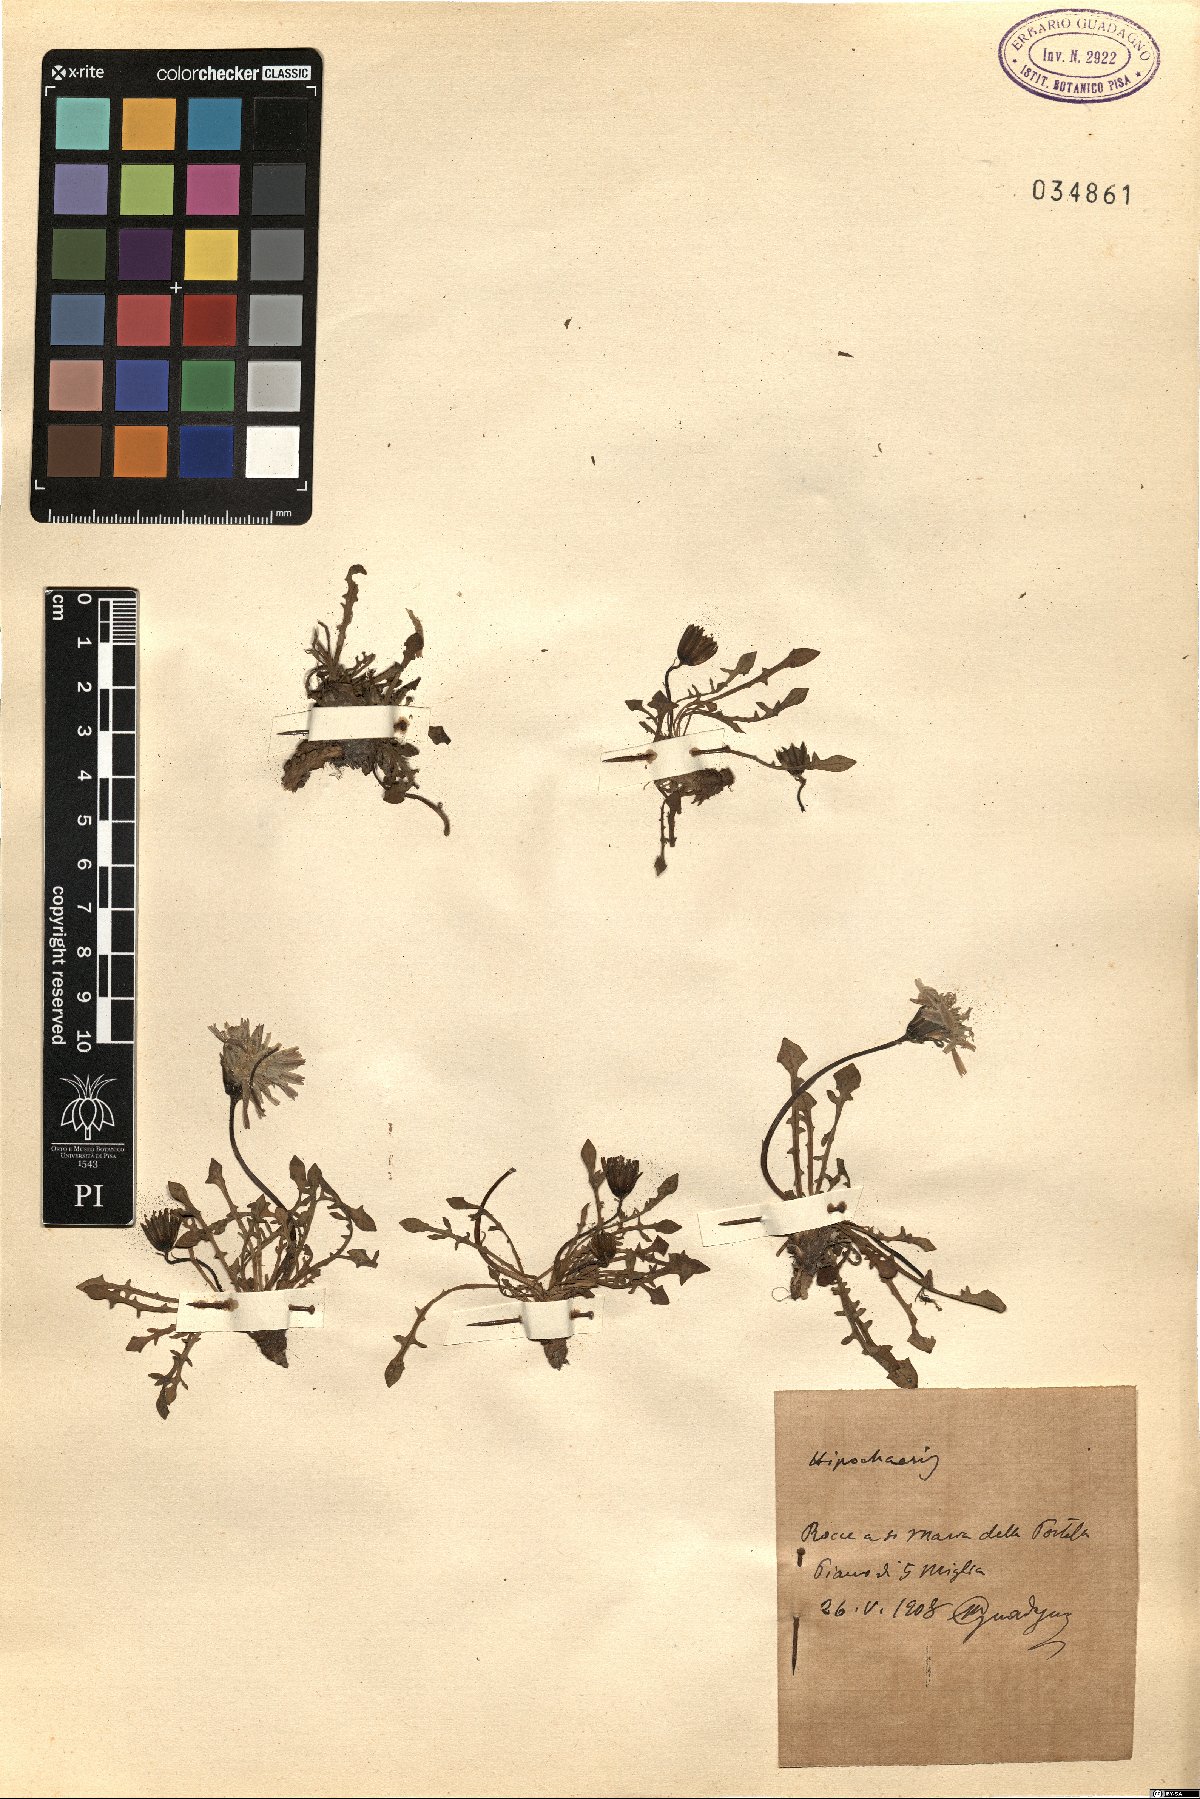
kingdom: Plantae
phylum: Tracheophyta
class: Magnoliopsida
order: Asterales
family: Asteraceae
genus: Hypochaeris
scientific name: Hypochaeris
